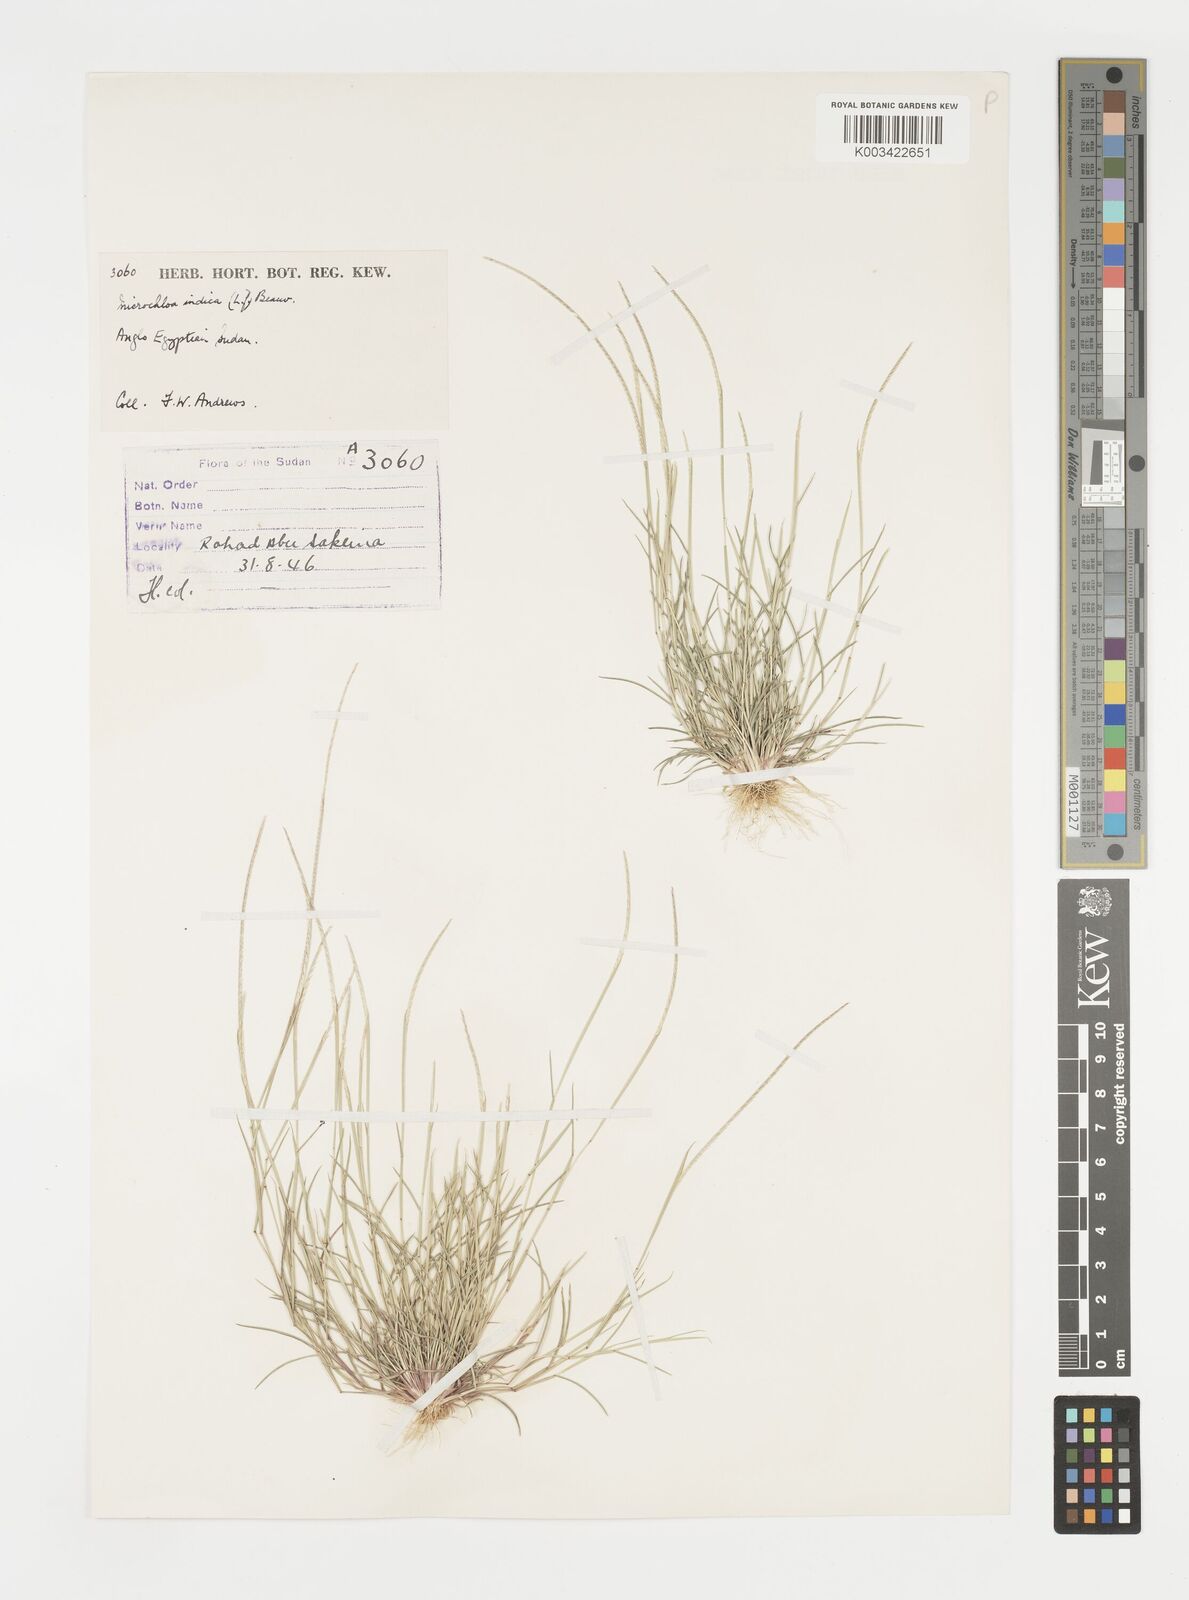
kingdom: Plantae
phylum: Tracheophyta
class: Liliopsida
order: Poales
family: Poaceae
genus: Microchloa
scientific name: Microchloa indica
